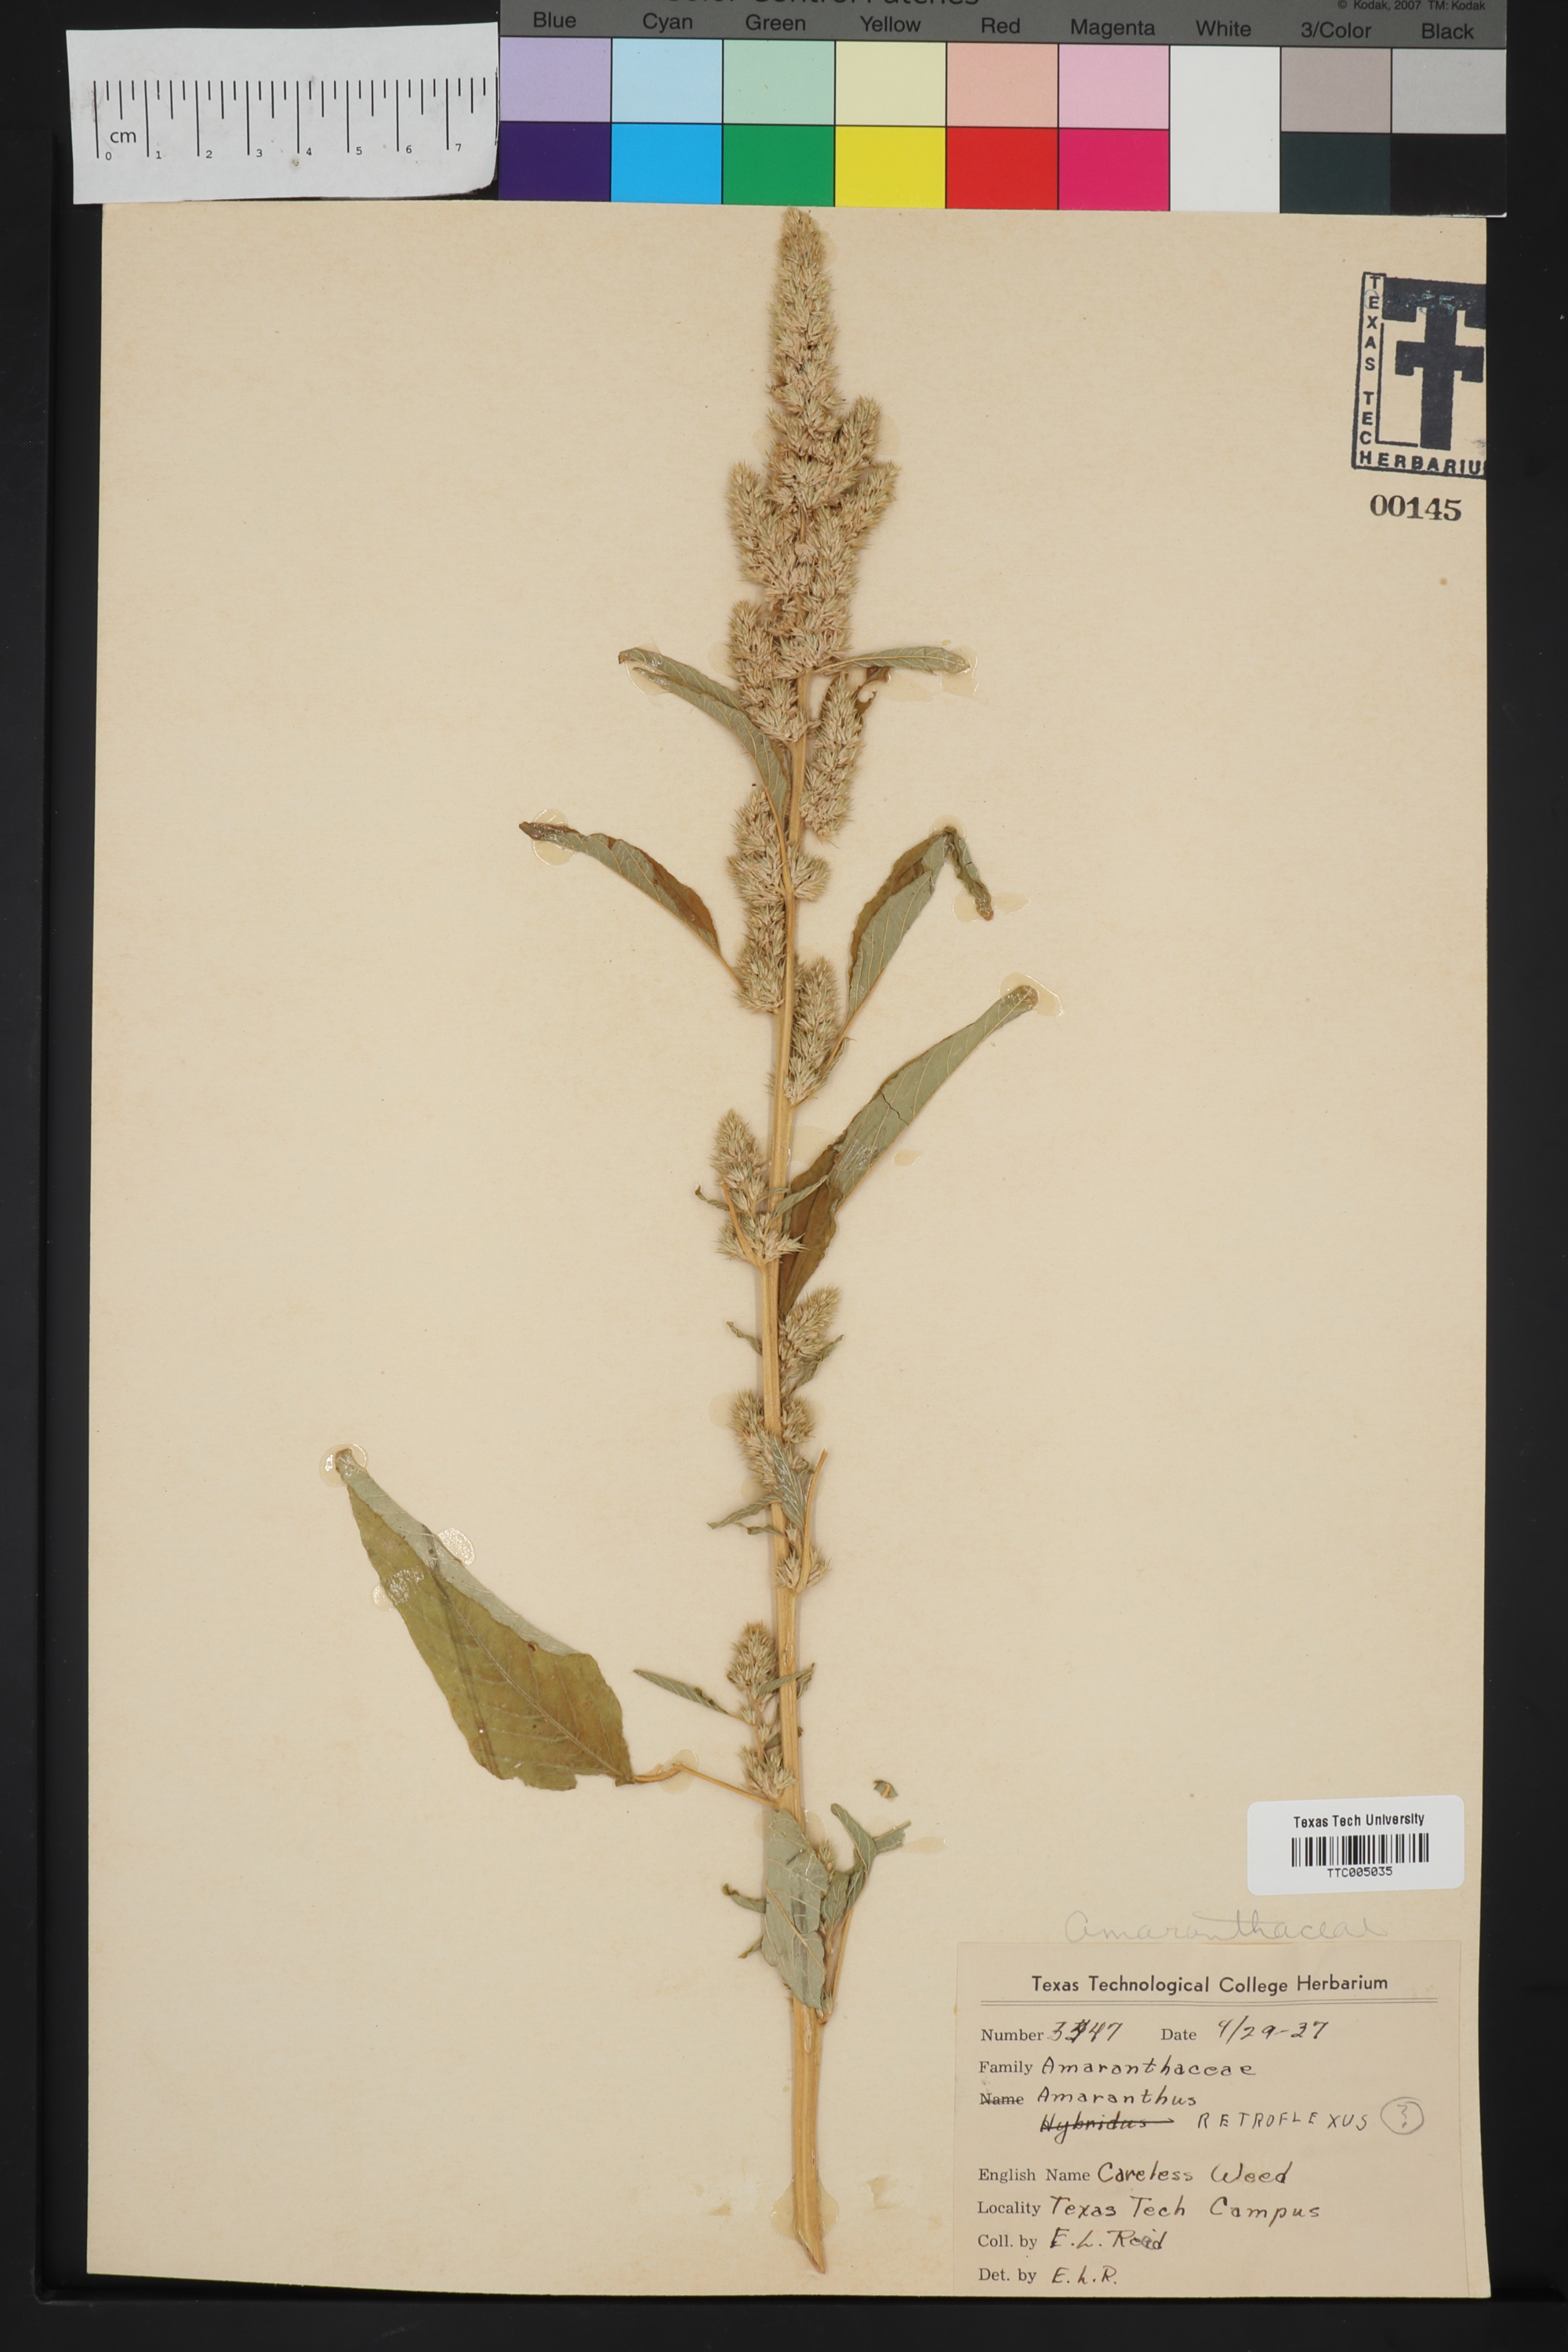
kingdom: Plantae
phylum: Tracheophyta
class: Magnoliopsida
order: Caryophyllales
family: Amaranthaceae
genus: Amaranthus
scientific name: Amaranthus retroflexus
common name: Redroot amaranth
